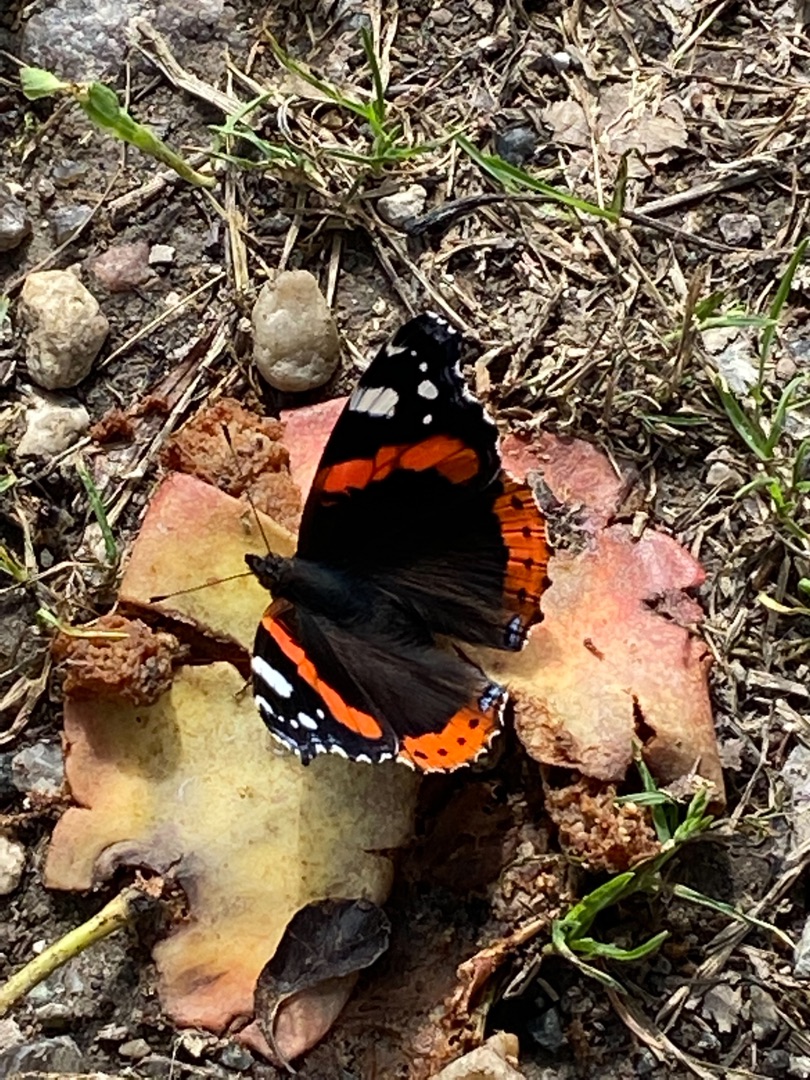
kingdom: Animalia
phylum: Arthropoda
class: Insecta
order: Lepidoptera
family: Nymphalidae
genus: Vanessa
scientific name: Vanessa atalanta
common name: Admiral
